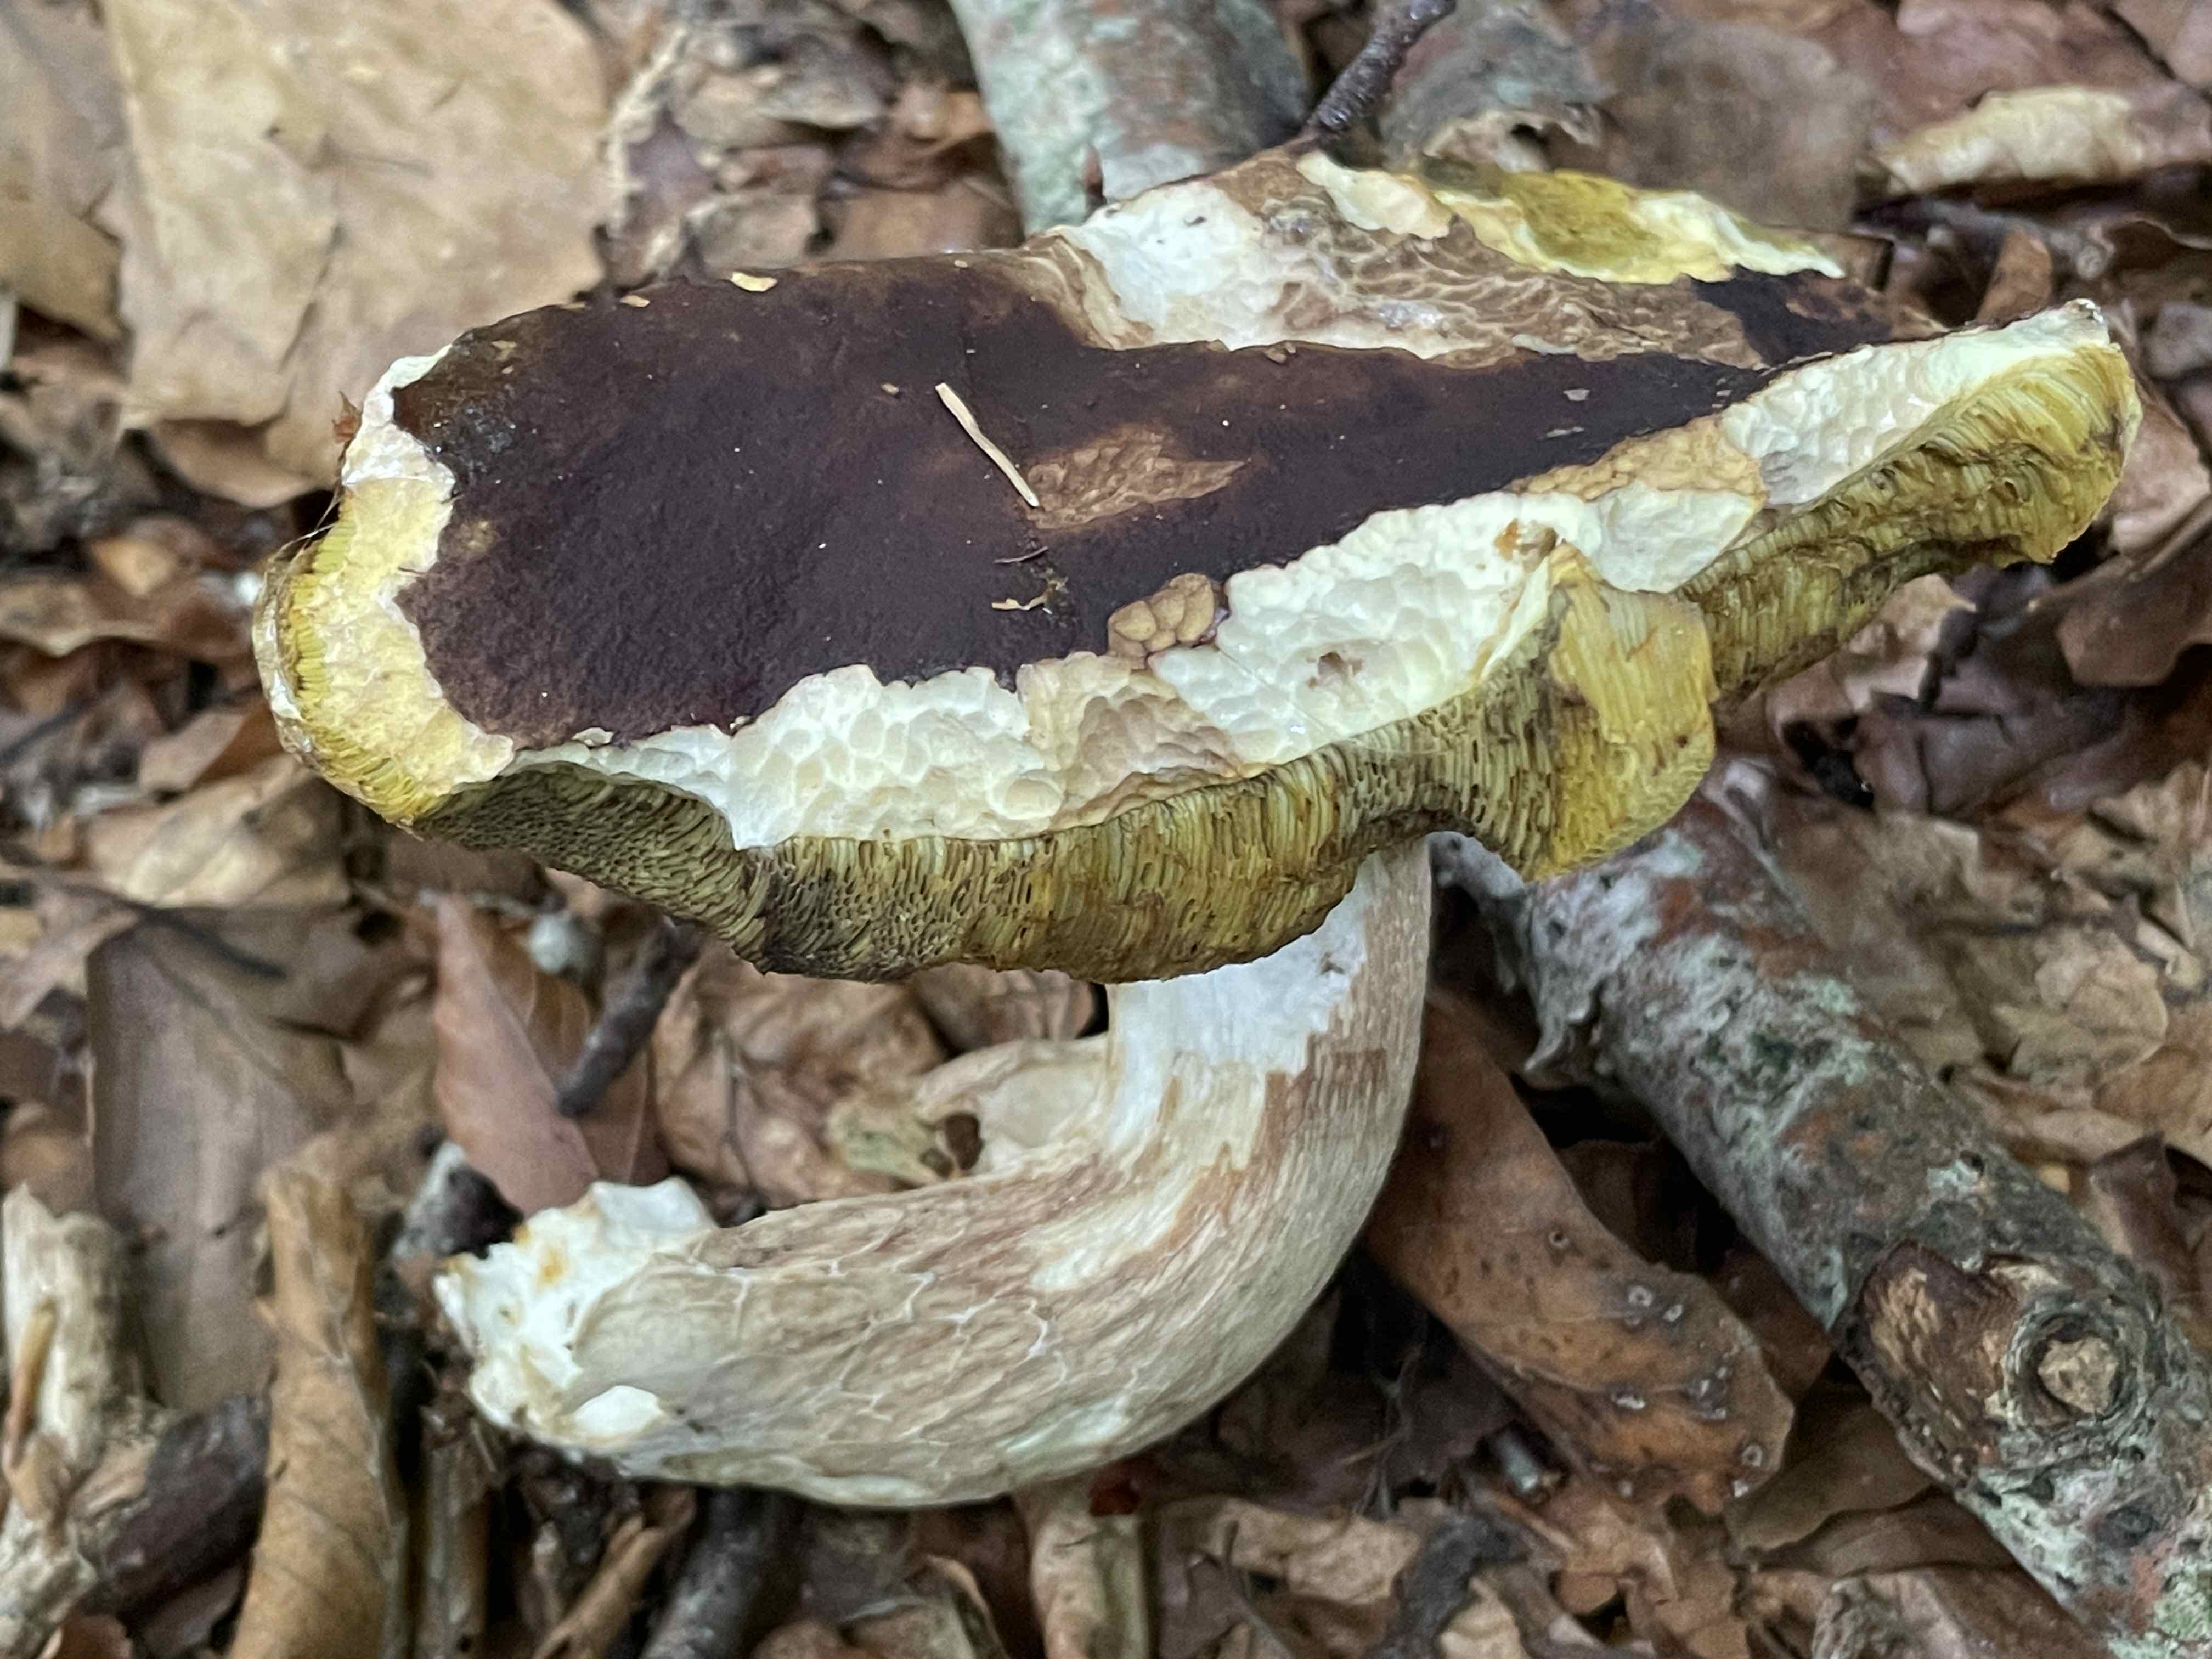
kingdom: Fungi
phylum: Basidiomycota
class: Agaricomycetes
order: Boletales
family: Boletaceae
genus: Boletus
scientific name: Boletus edulis
